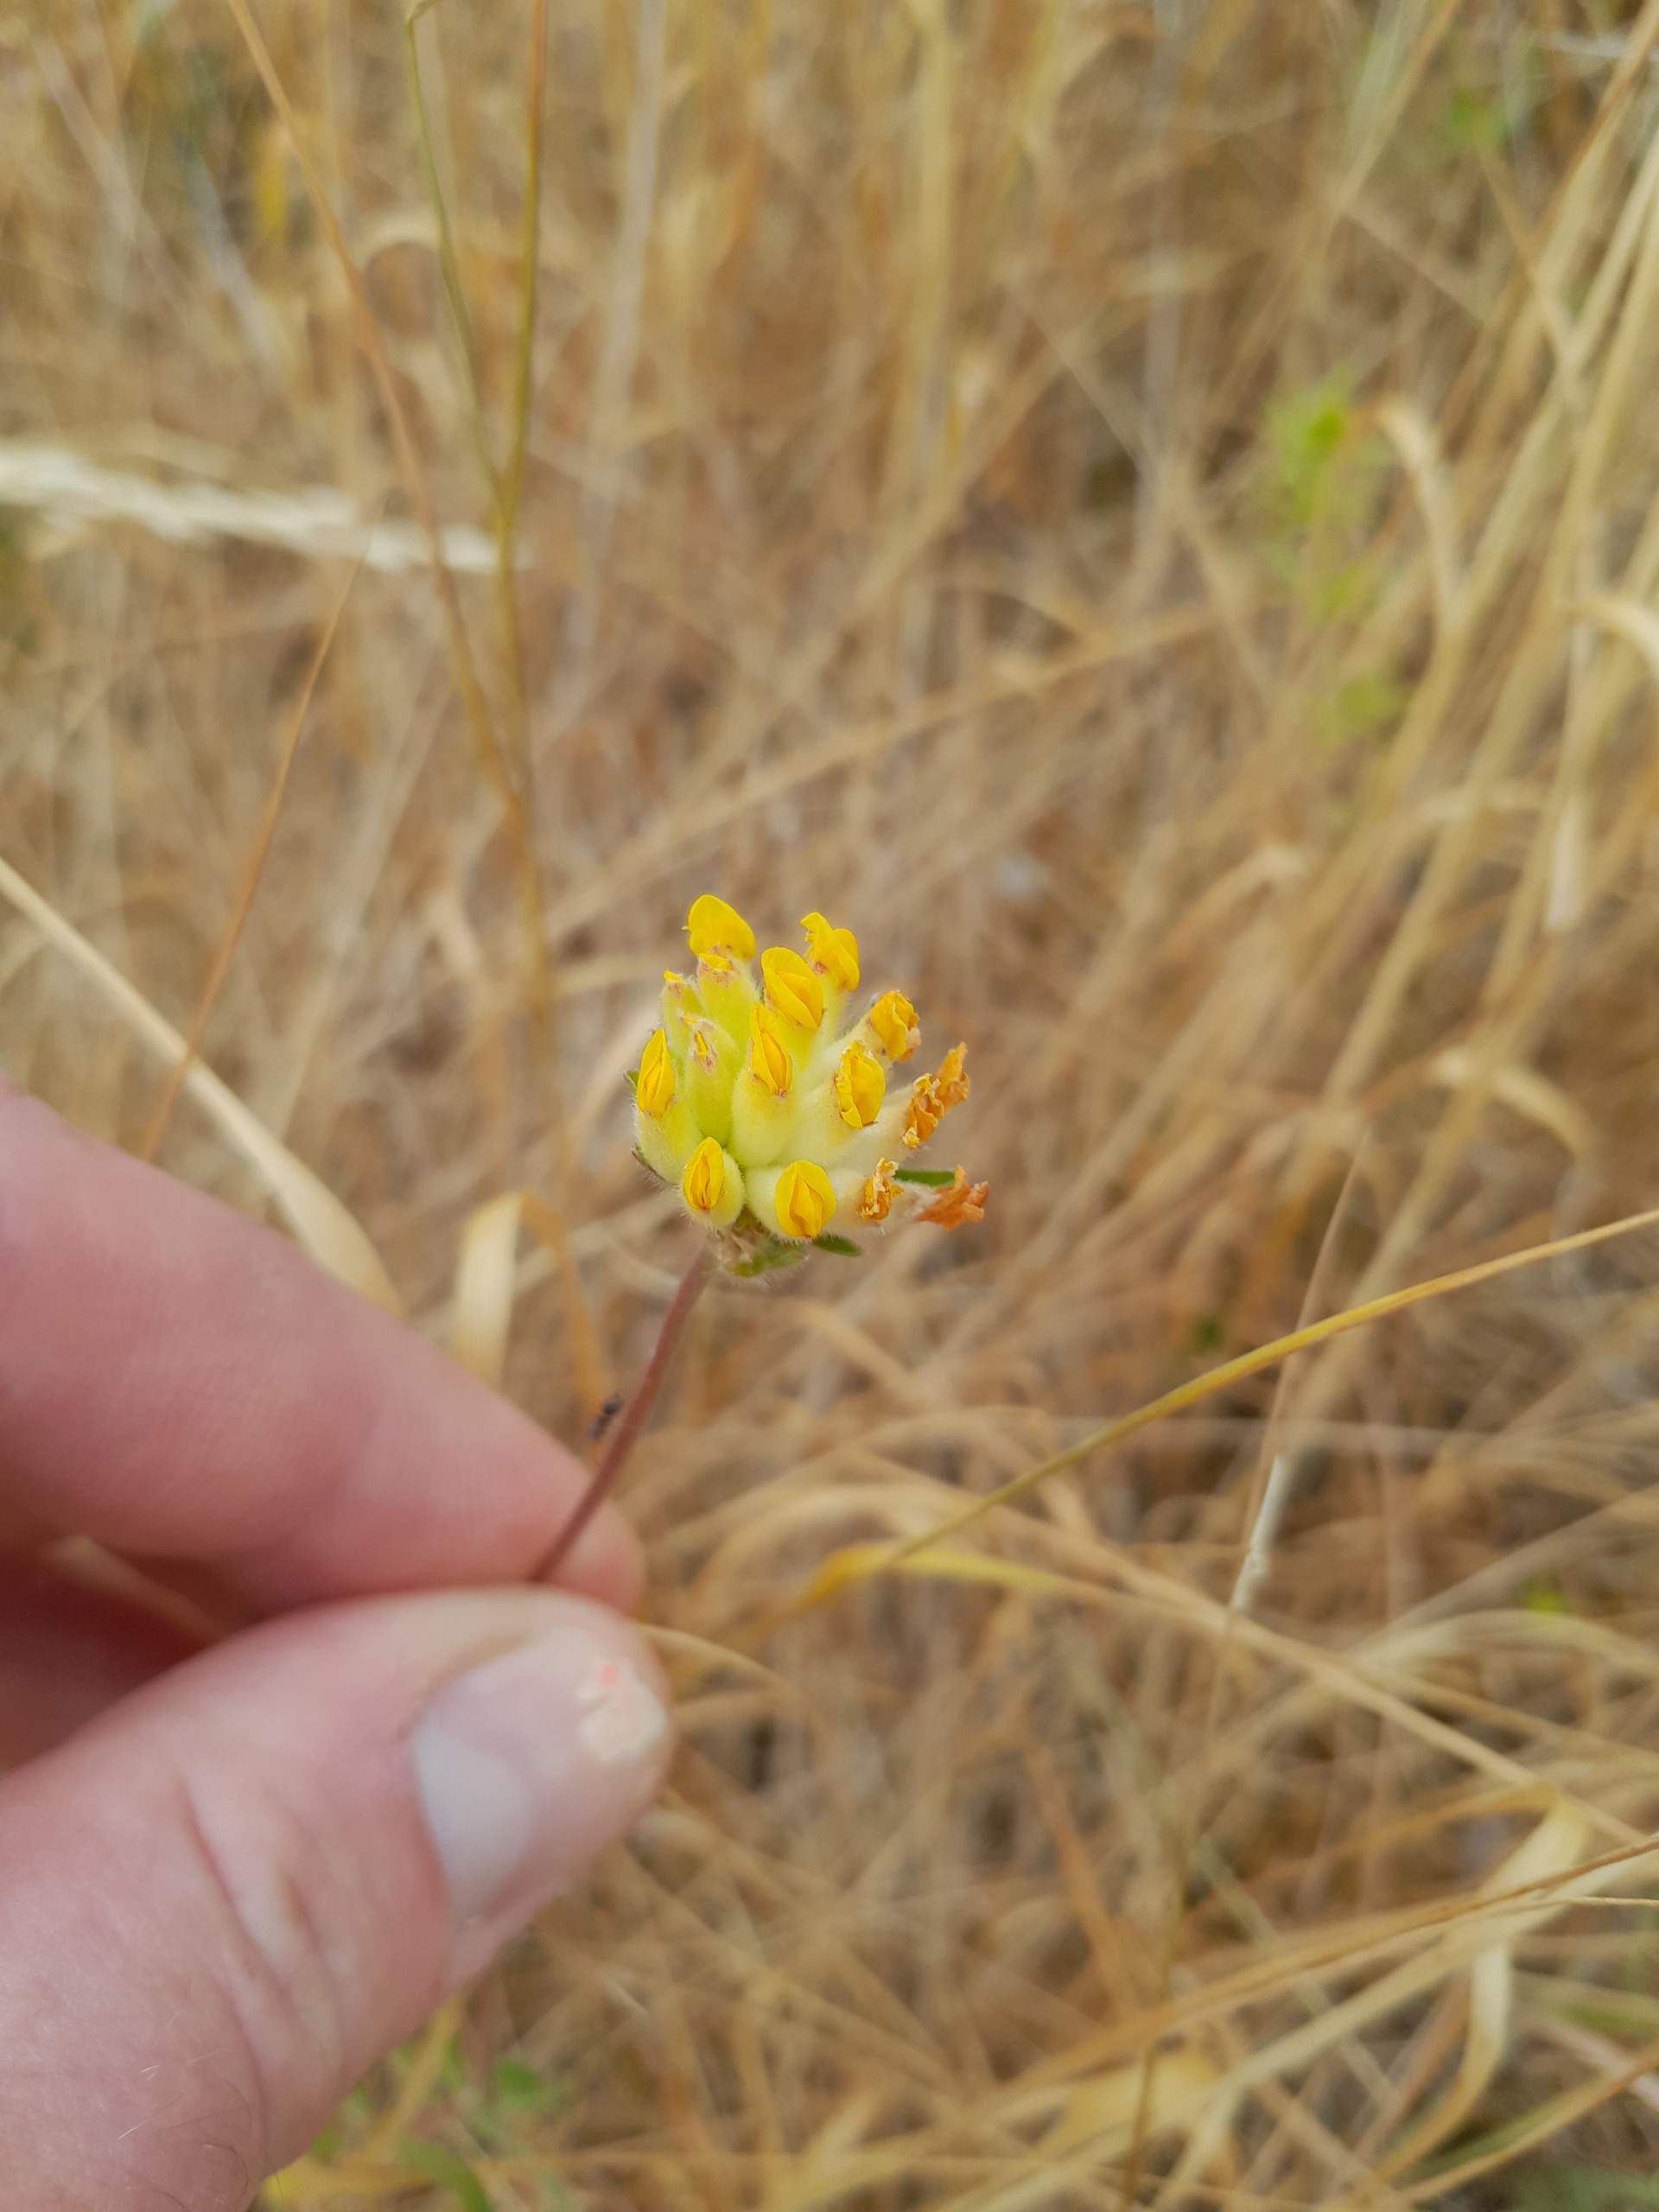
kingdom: Plantae
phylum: Tracheophyta
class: Magnoliopsida
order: Fabales
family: Fabaceae
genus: Anthyllis
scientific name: Anthyllis vulneraria
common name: Rundbælg
